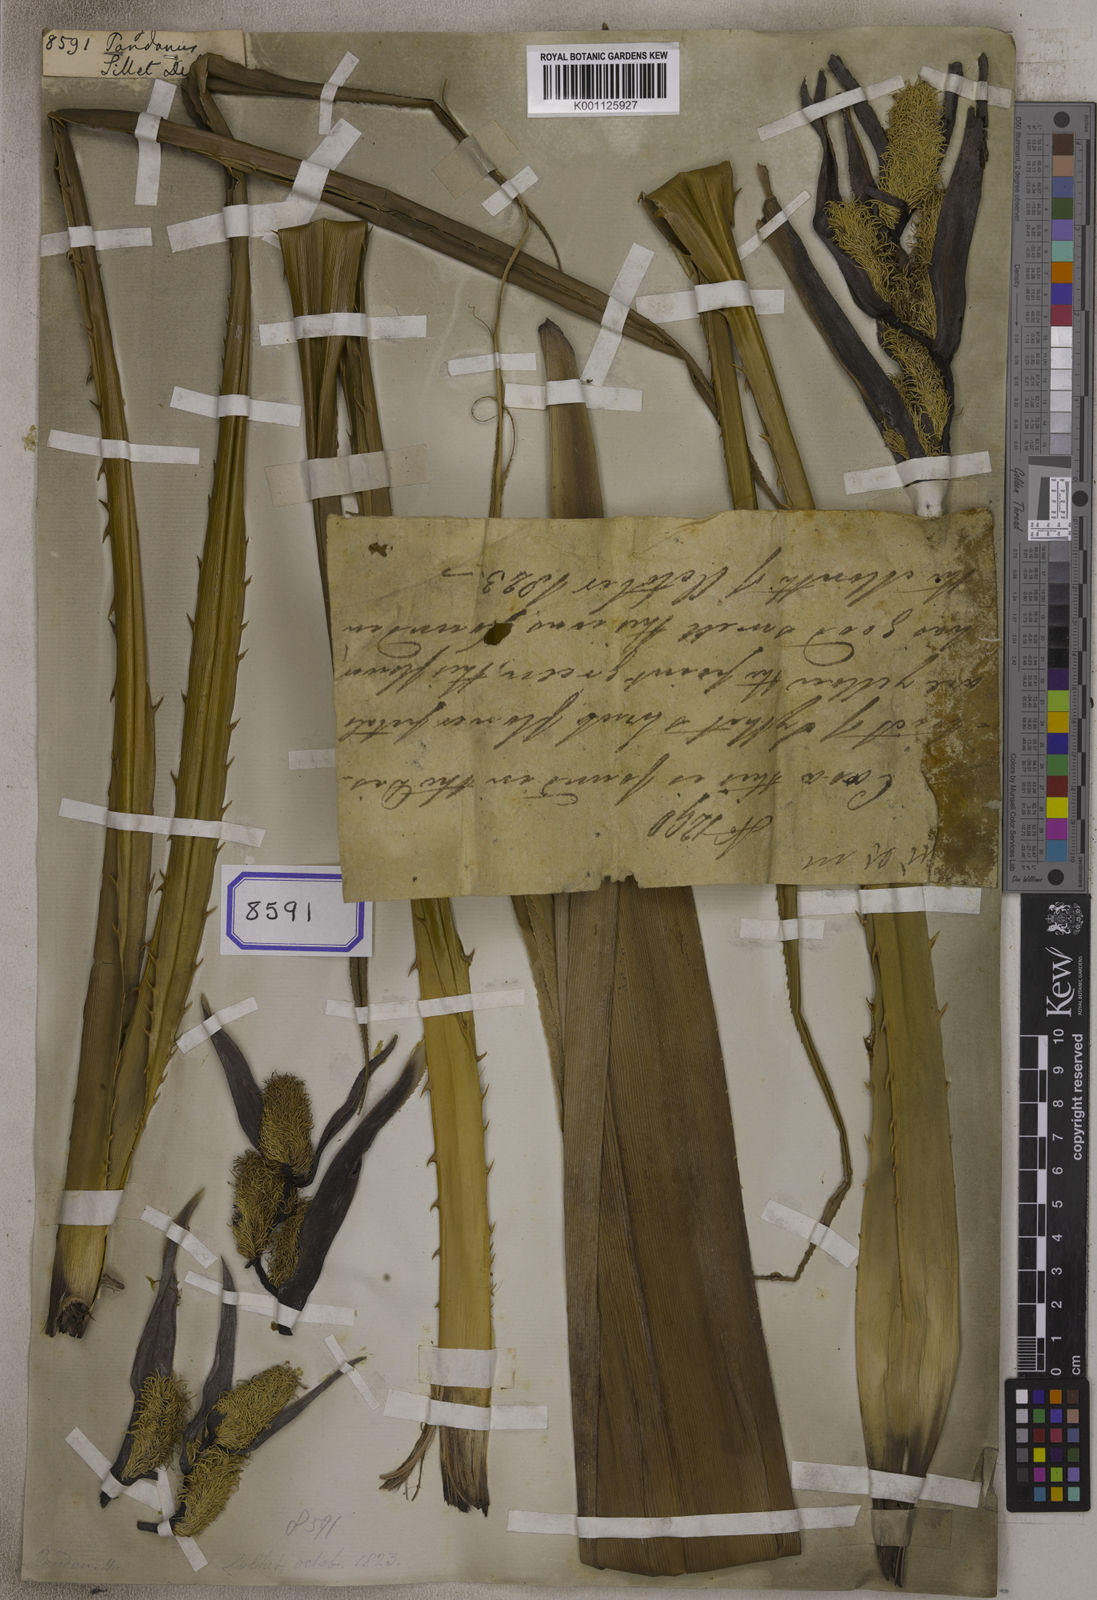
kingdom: Plantae
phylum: Tracheophyta
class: Liliopsida
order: Pandanales
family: Pandanaceae
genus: Pandanus
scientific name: Pandanus
